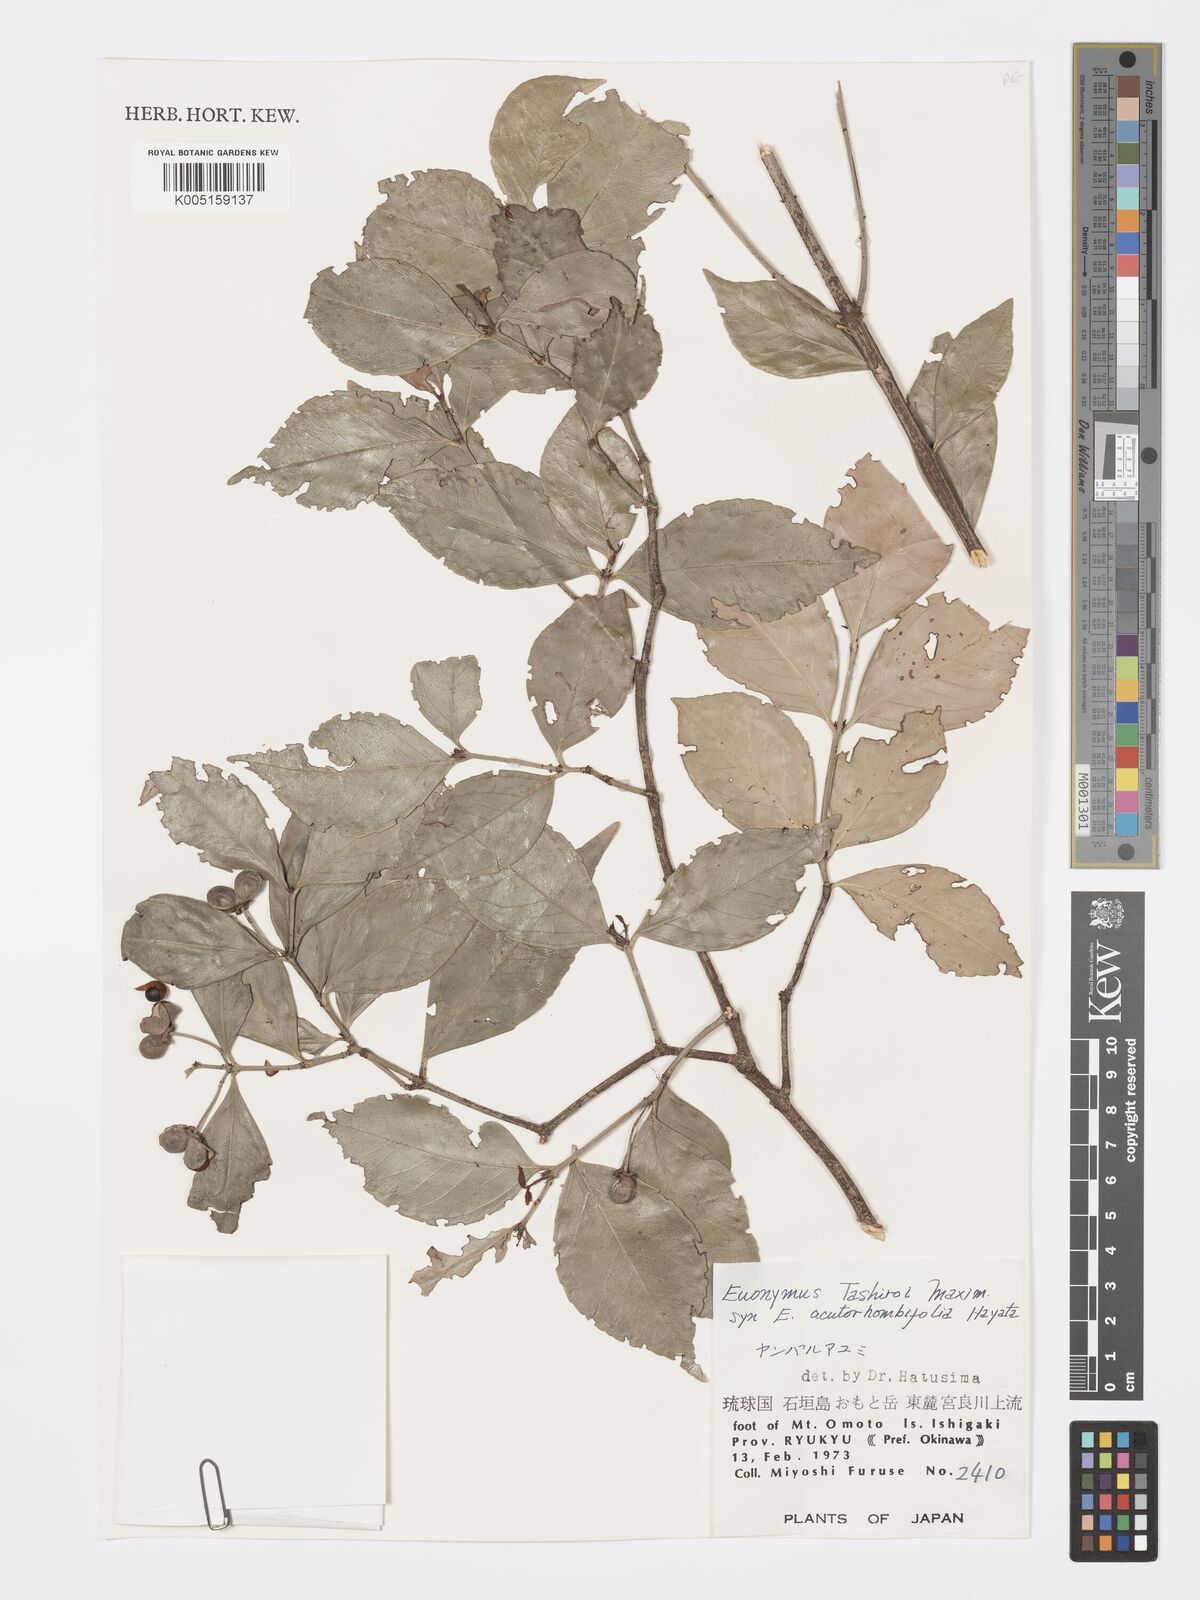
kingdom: Plantae
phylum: Tracheophyta
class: Magnoliopsida
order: Celastrales
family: Celastraceae
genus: Euonymus
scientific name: Euonymus tashiroi
